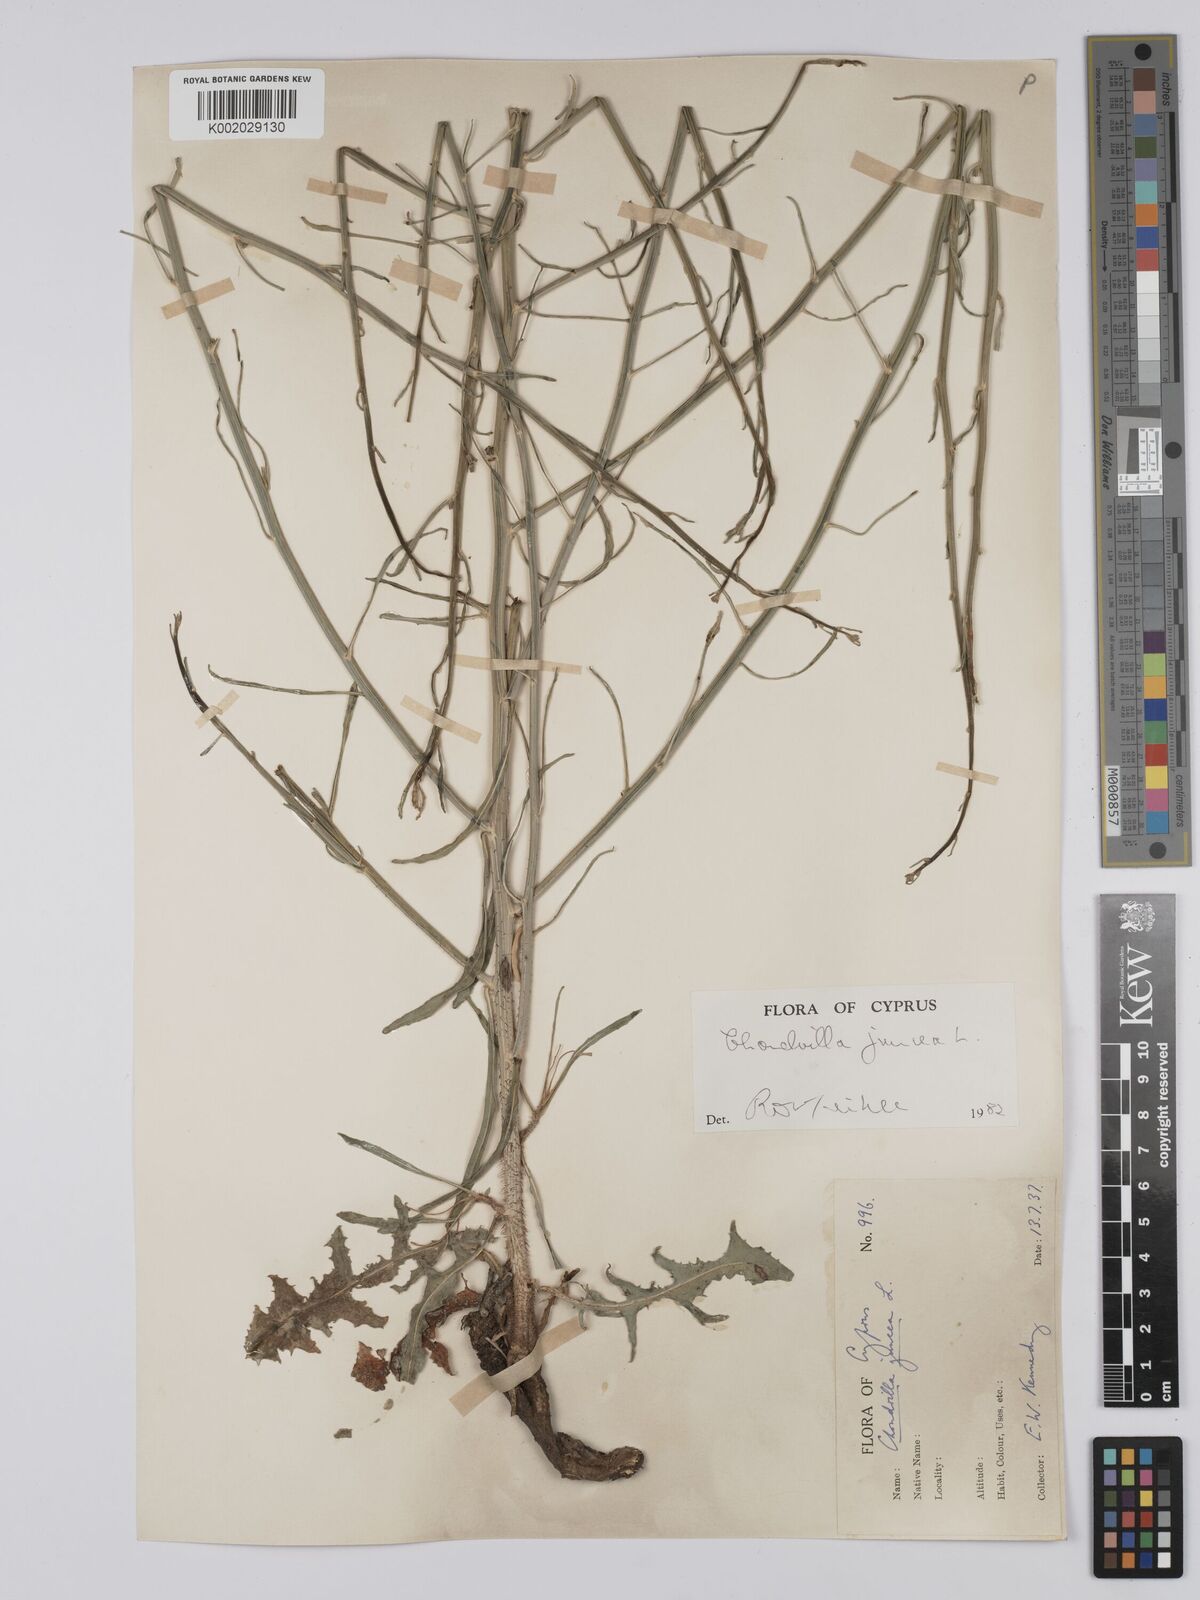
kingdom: Plantae
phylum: Tracheophyta
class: Magnoliopsida
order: Asterales
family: Asteraceae
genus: Chondrilla
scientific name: Chondrilla juncea
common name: Skeleton weed
